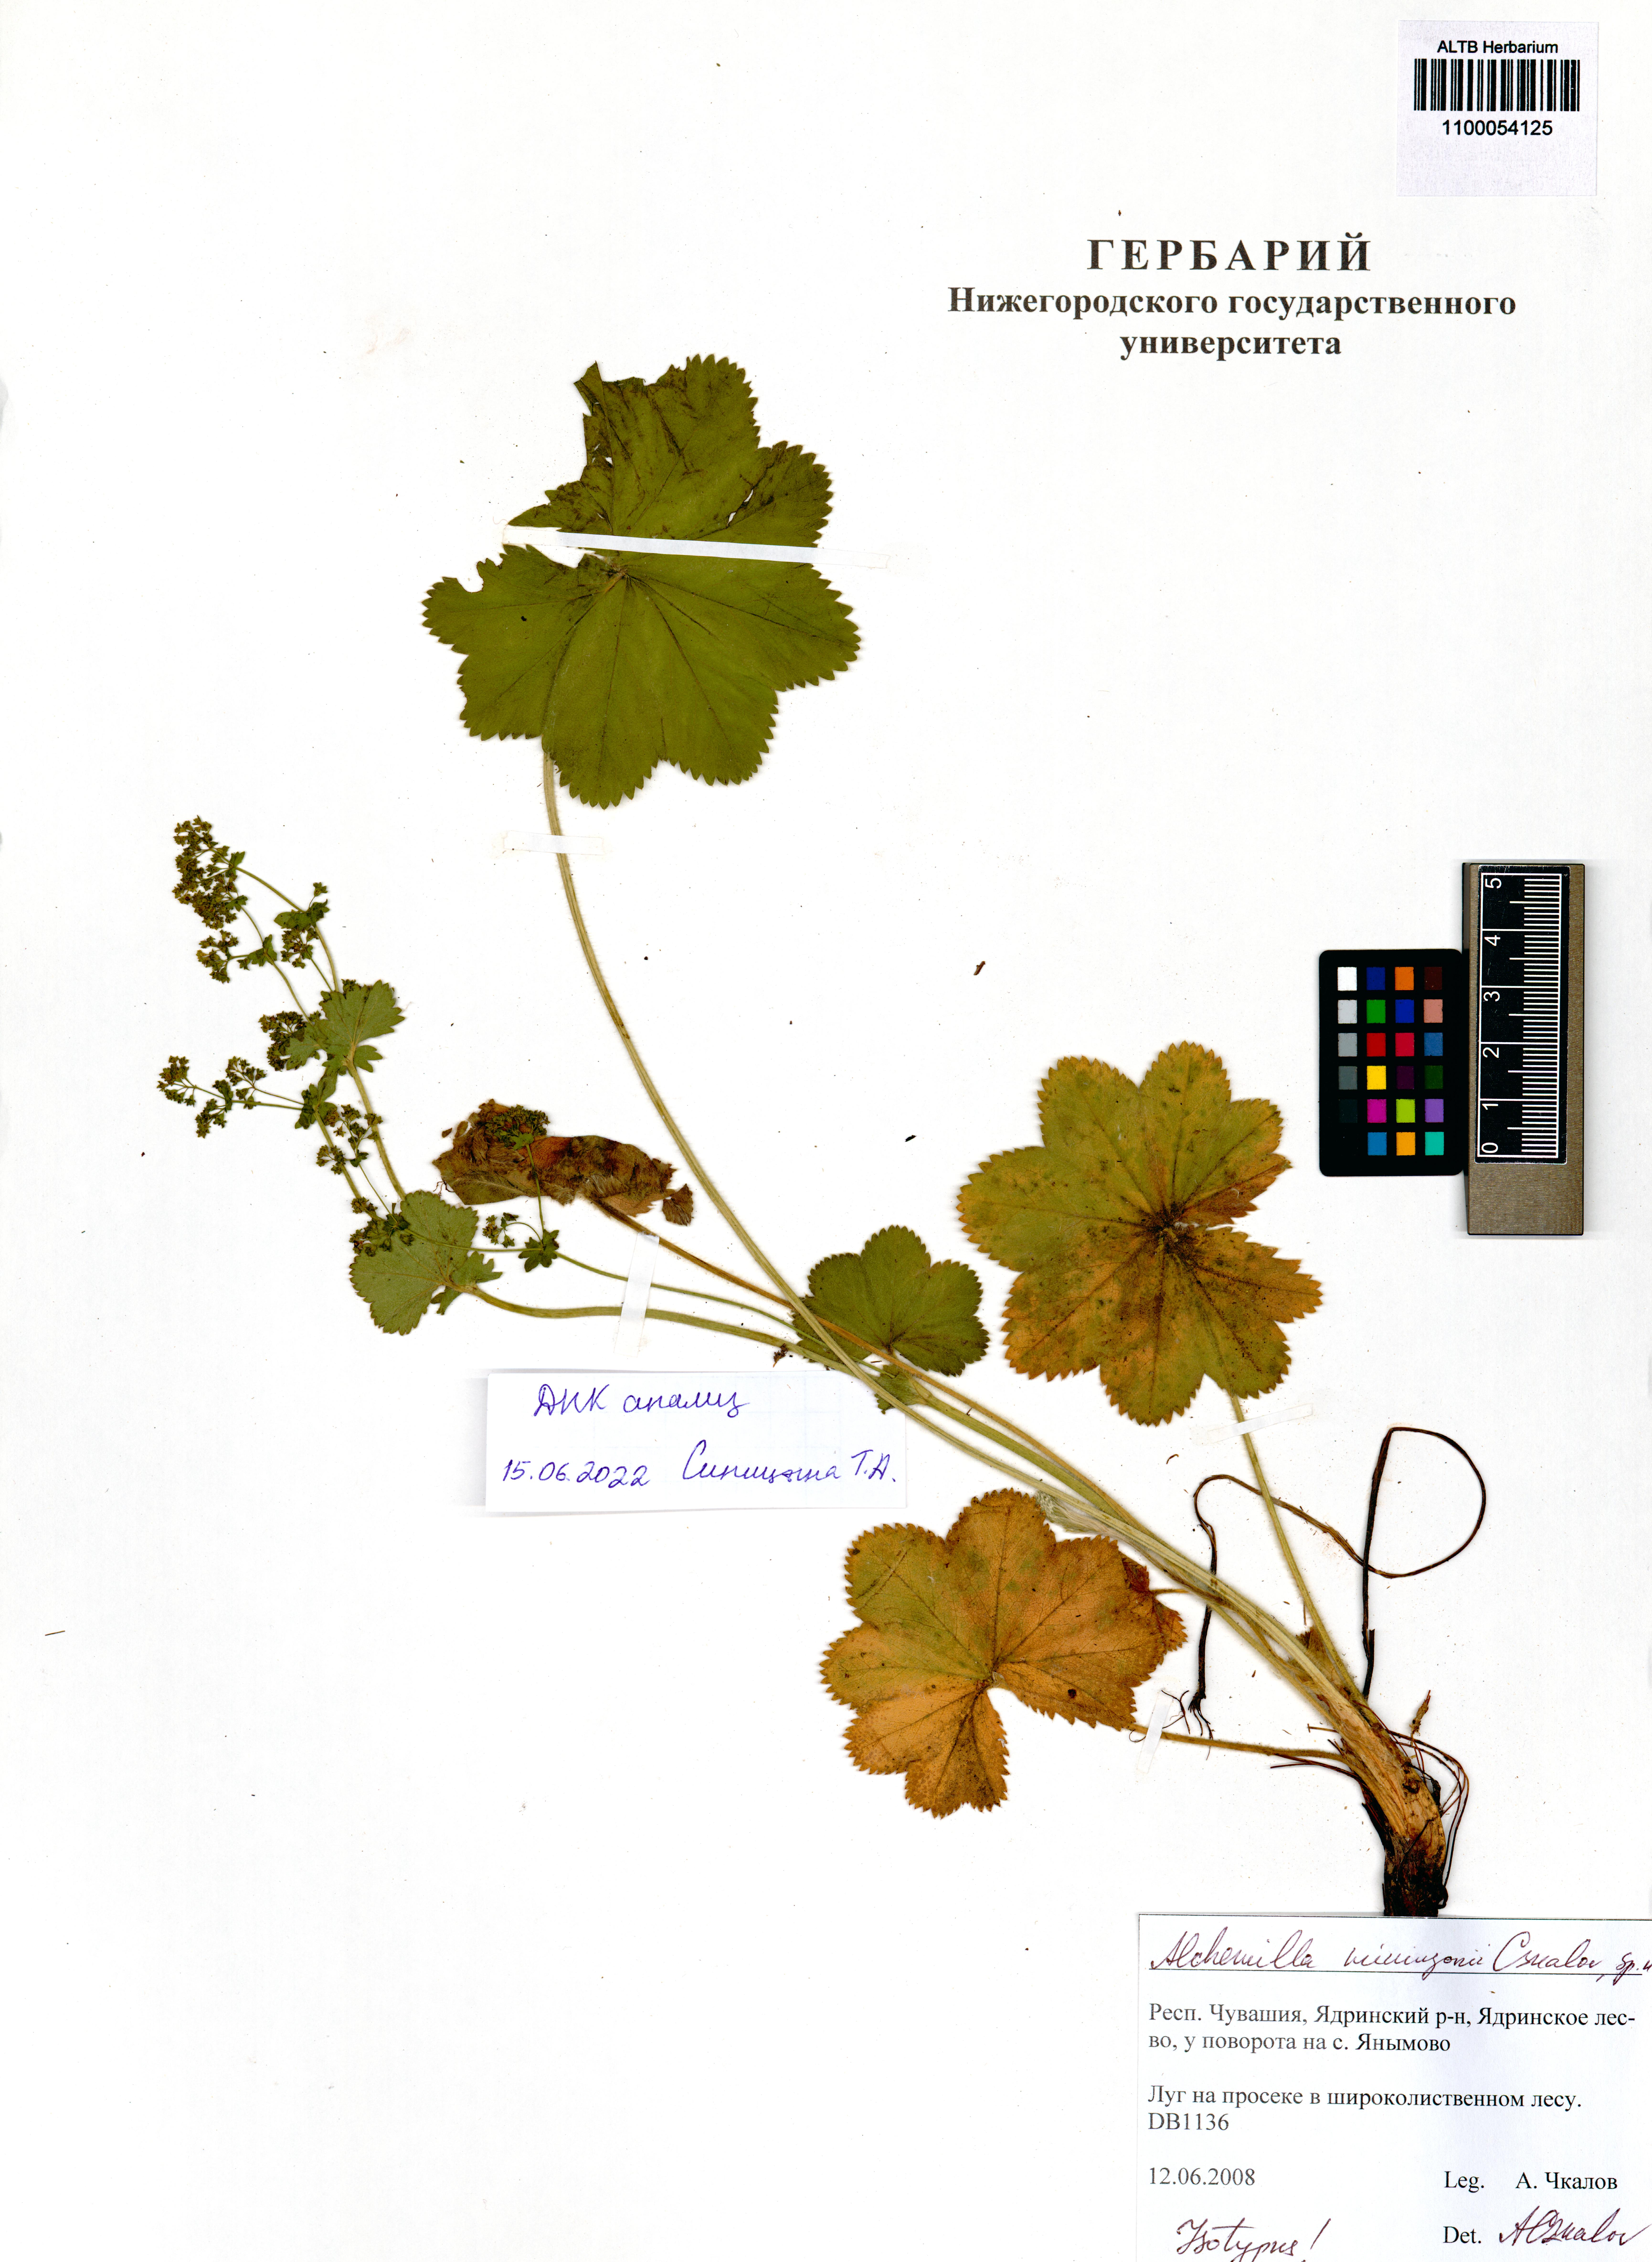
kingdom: Plantae
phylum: Tracheophyta
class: Magnoliopsida
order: Rosales
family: Rosaceae
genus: Alchemilla
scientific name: Alchemilla mininzonii
